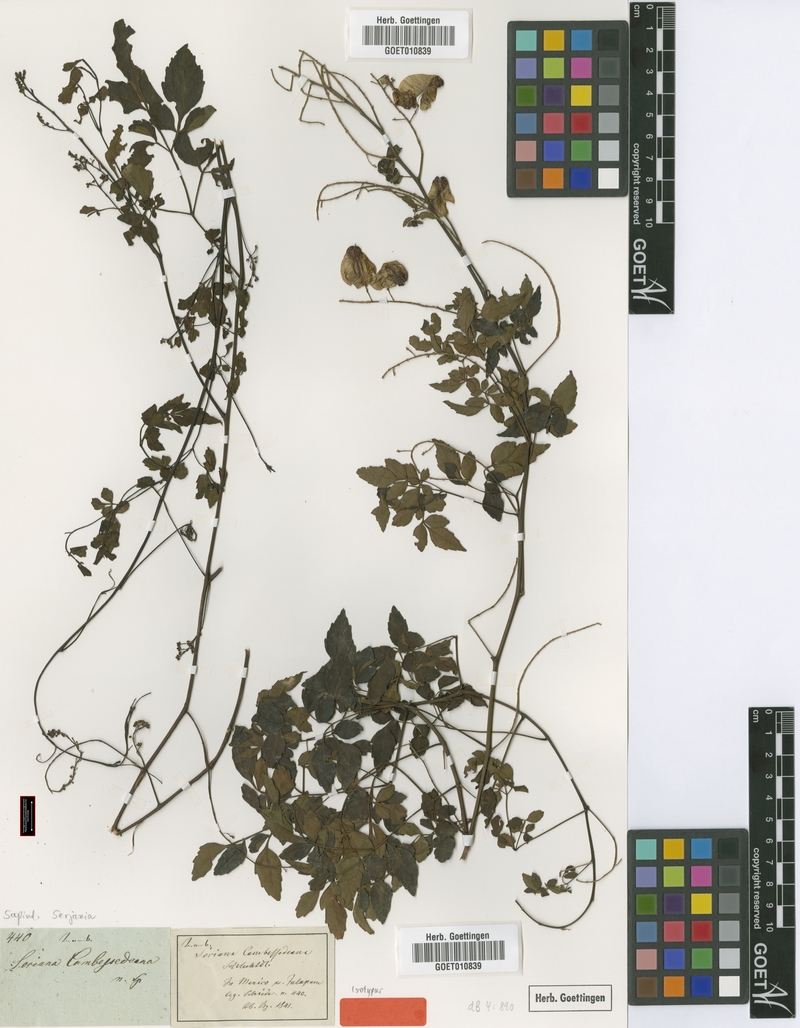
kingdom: Plantae
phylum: Tracheophyta
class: Magnoliopsida
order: Sapindales
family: Sapindaceae
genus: Serjania
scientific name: Serjania adiantoides
